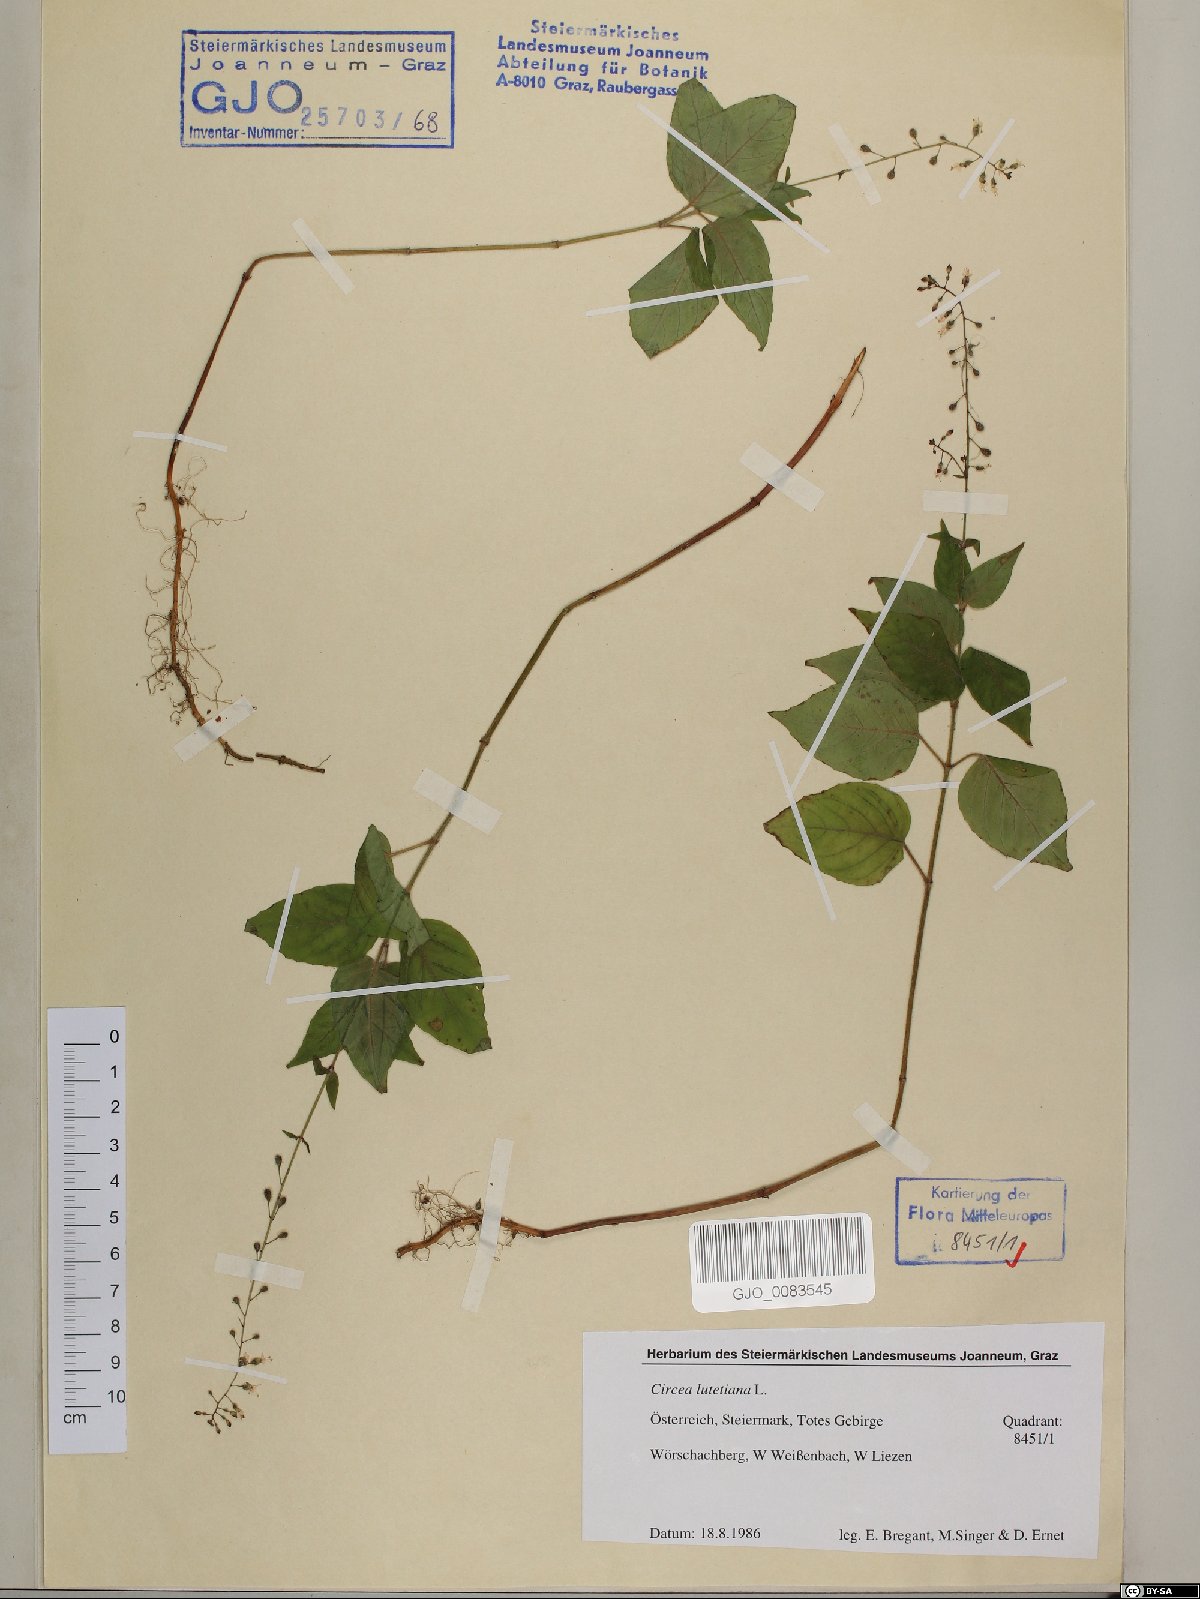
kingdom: Plantae
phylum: Tracheophyta
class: Magnoliopsida
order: Myrtales
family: Onagraceae
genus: Circaea
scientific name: Circaea lutetiana
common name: Enchanter's-nightshade
